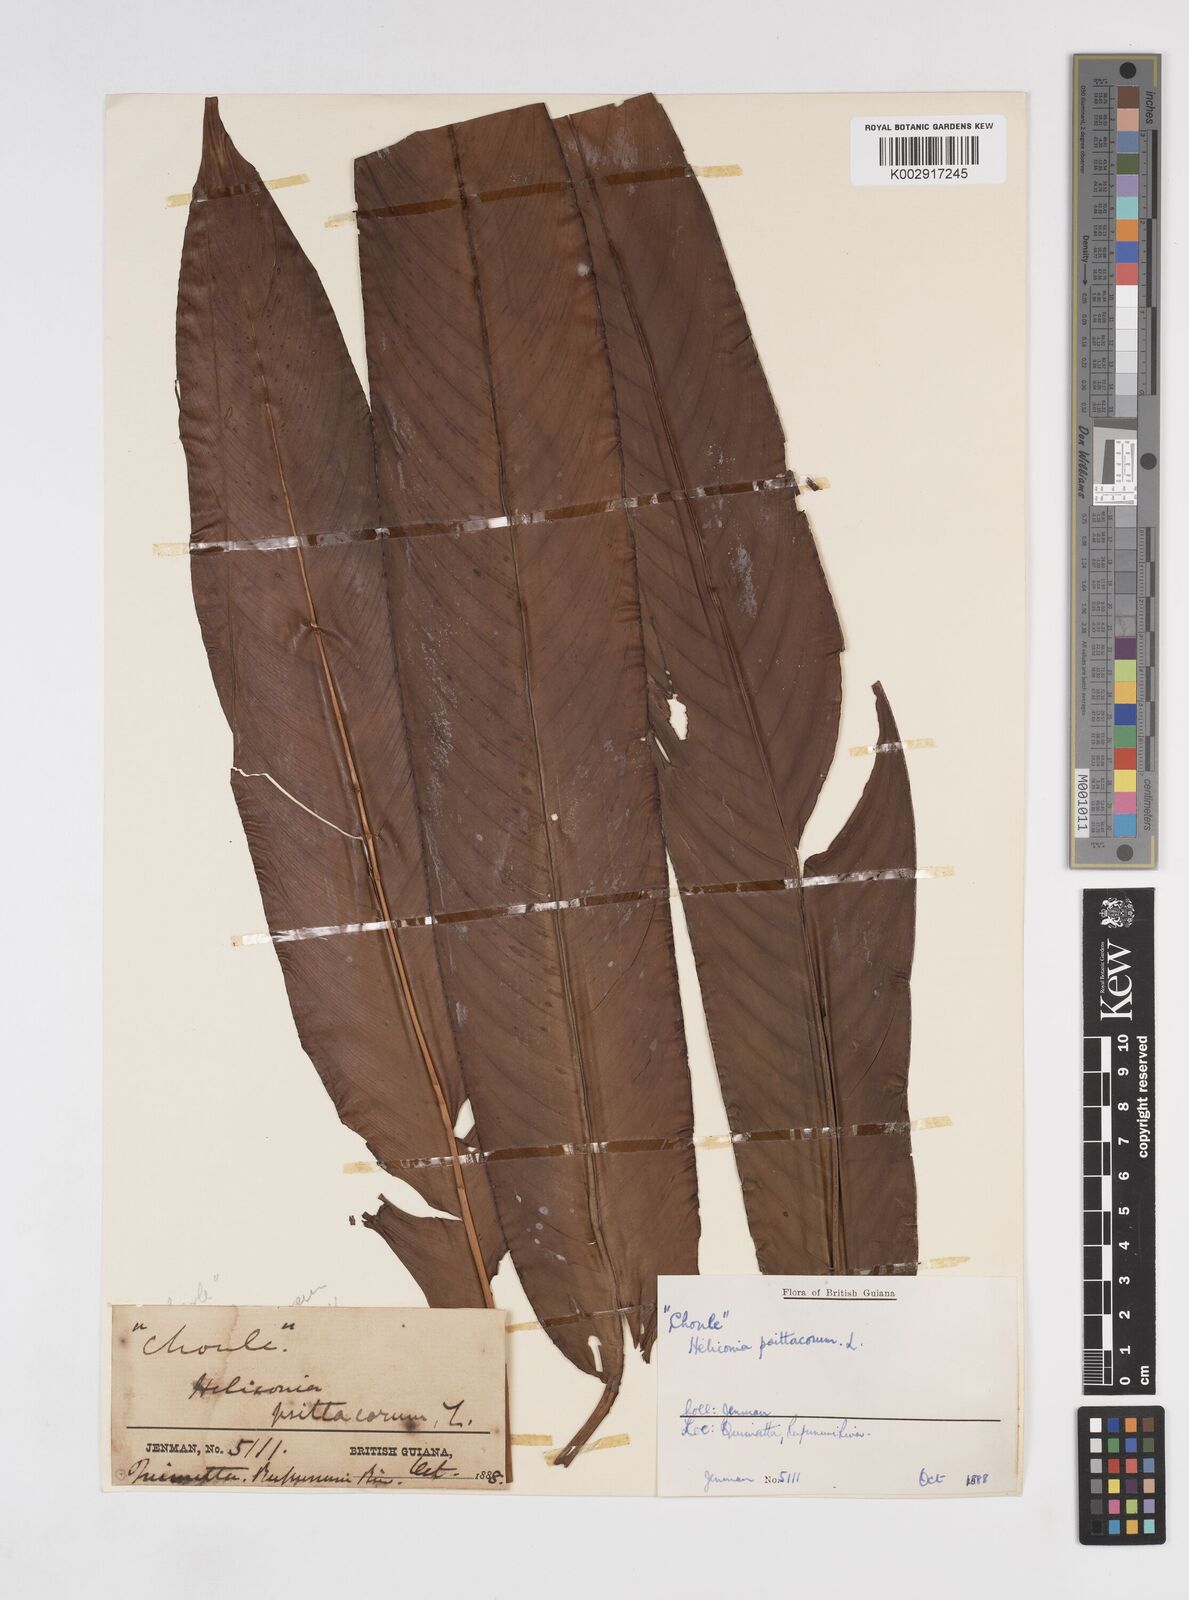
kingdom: Plantae
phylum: Tracheophyta
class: Liliopsida
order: Zingiberales
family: Heliconiaceae
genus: Heliconia
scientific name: Heliconia psittacorum
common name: Parrot's-flower
